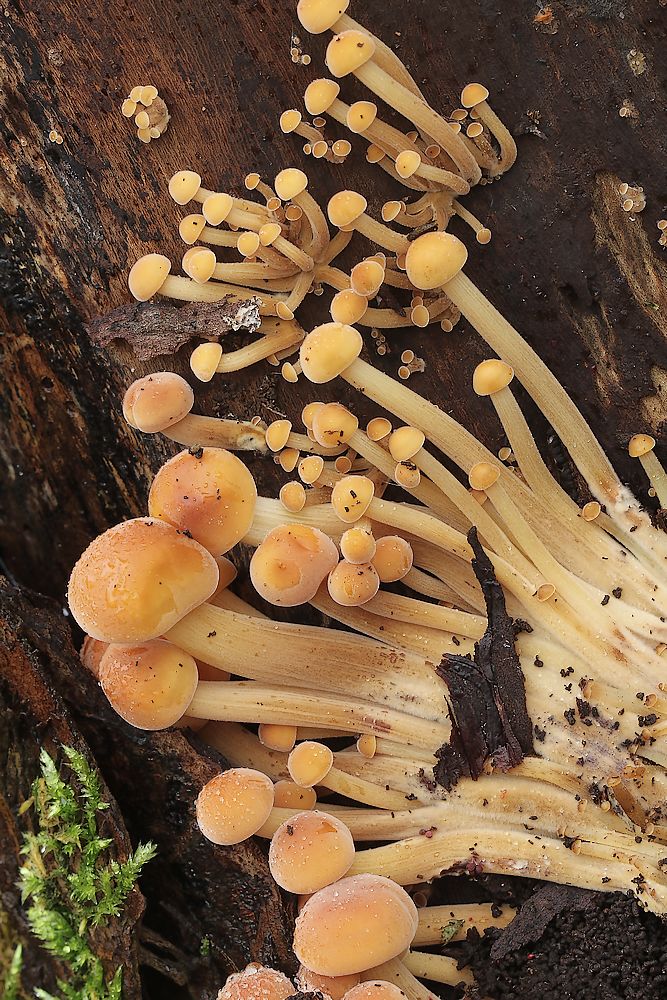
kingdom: Fungi
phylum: Basidiomycota
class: Agaricomycetes
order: Agaricales
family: Physalacriaceae
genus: Flammulina
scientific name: Flammulina
